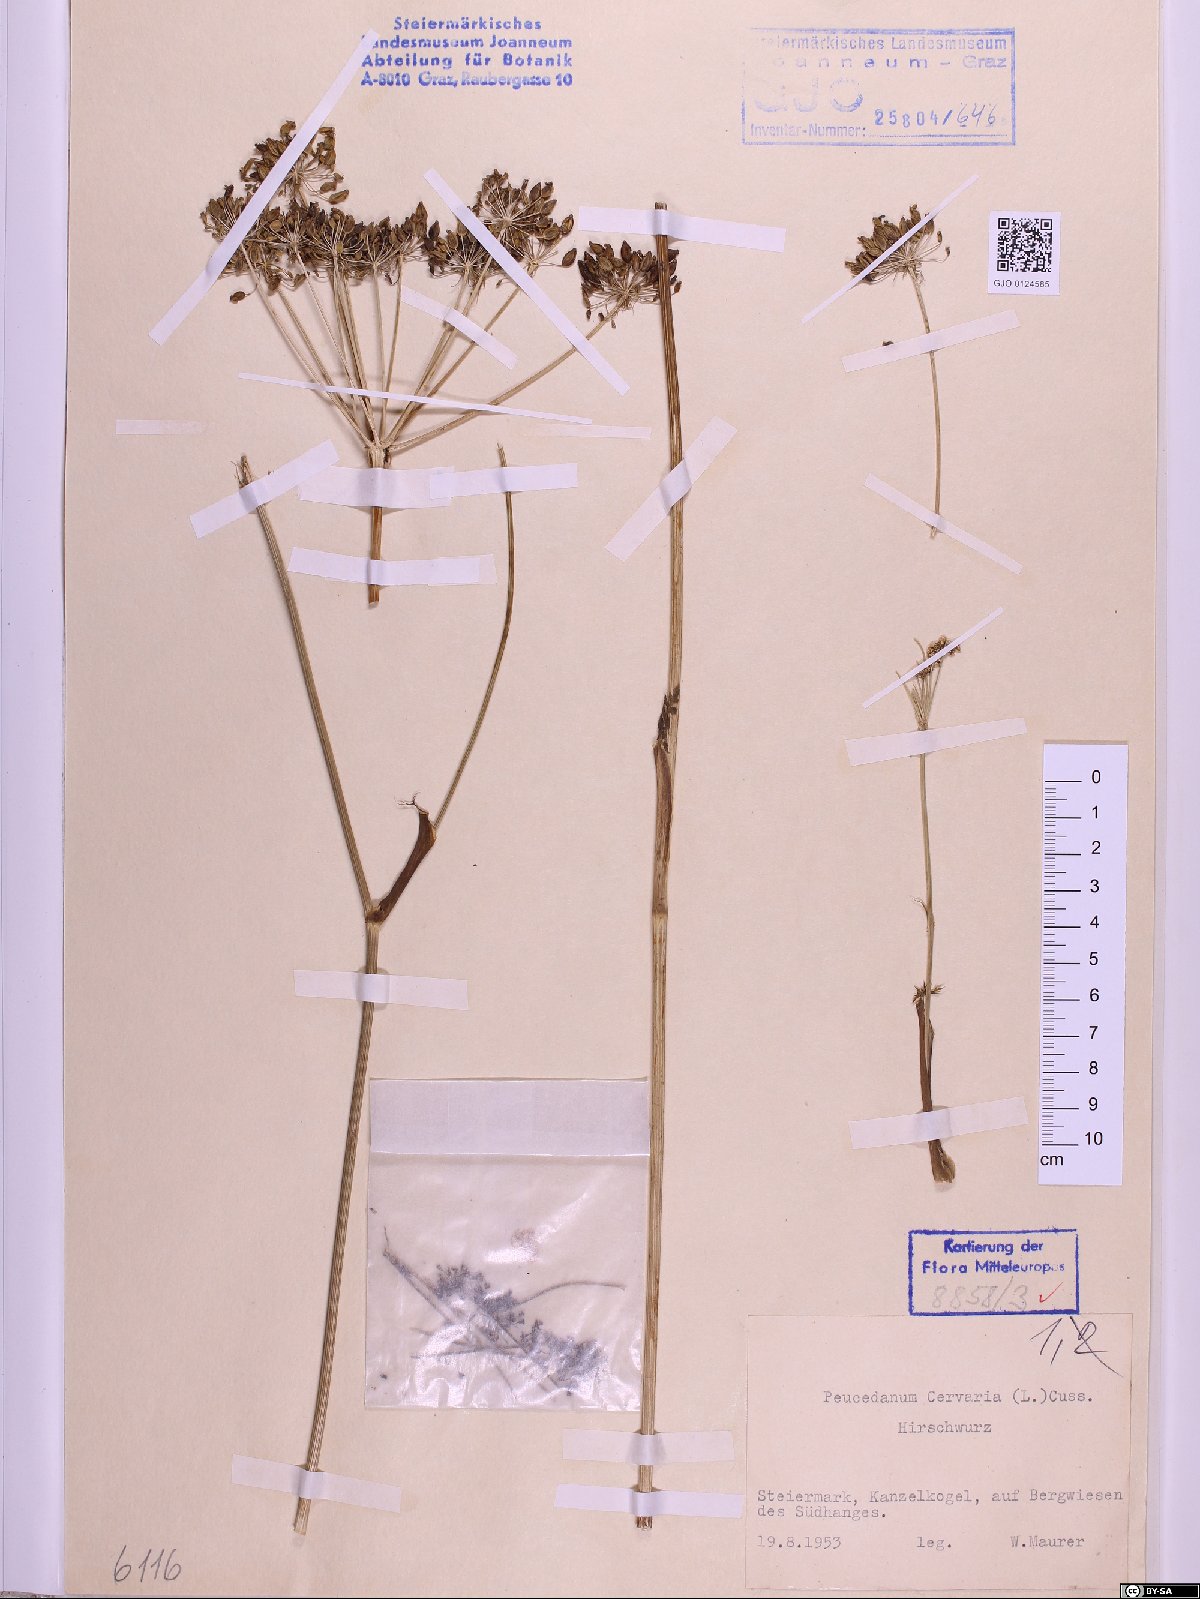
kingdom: Plantae
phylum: Tracheophyta
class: Magnoliopsida
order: Apiales
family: Apiaceae
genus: Cervaria
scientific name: Cervaria rivini
